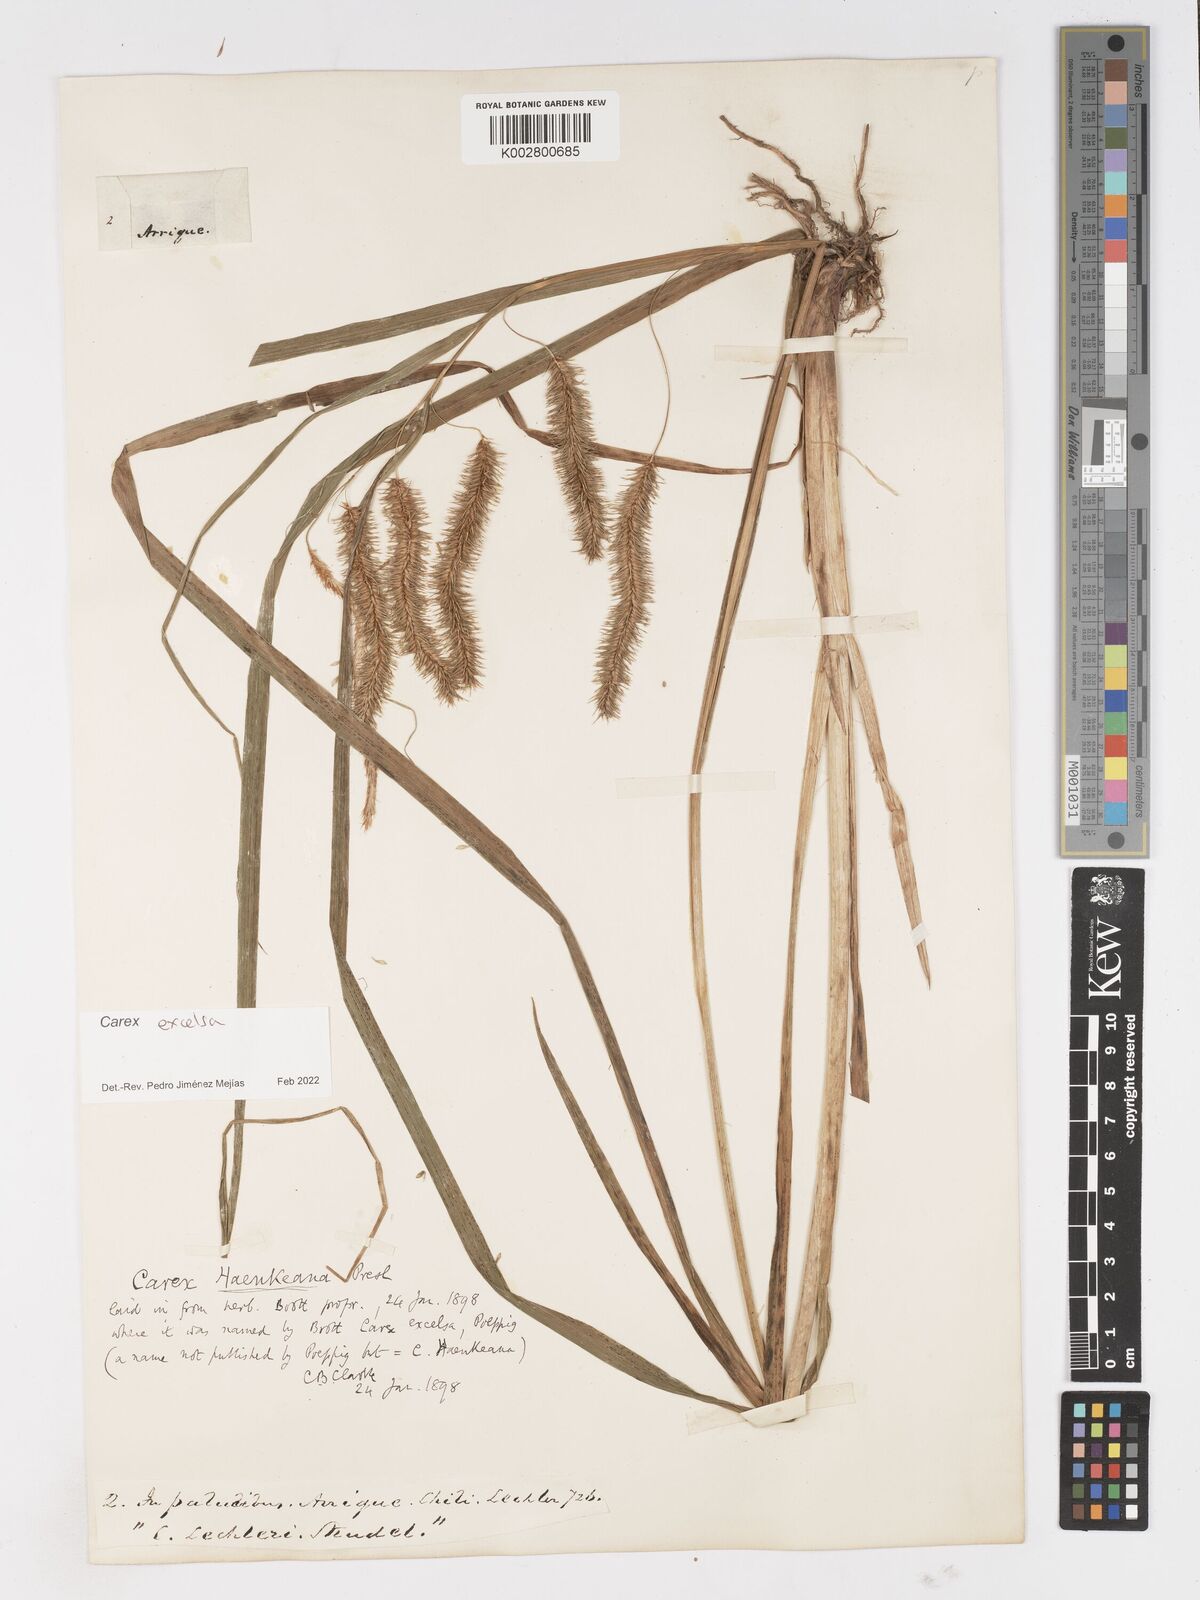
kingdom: Plantae
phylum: Tracheophyta
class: Liliopsida
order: Poales
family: Cyperaceae
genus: Carex
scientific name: Carex excelsa
